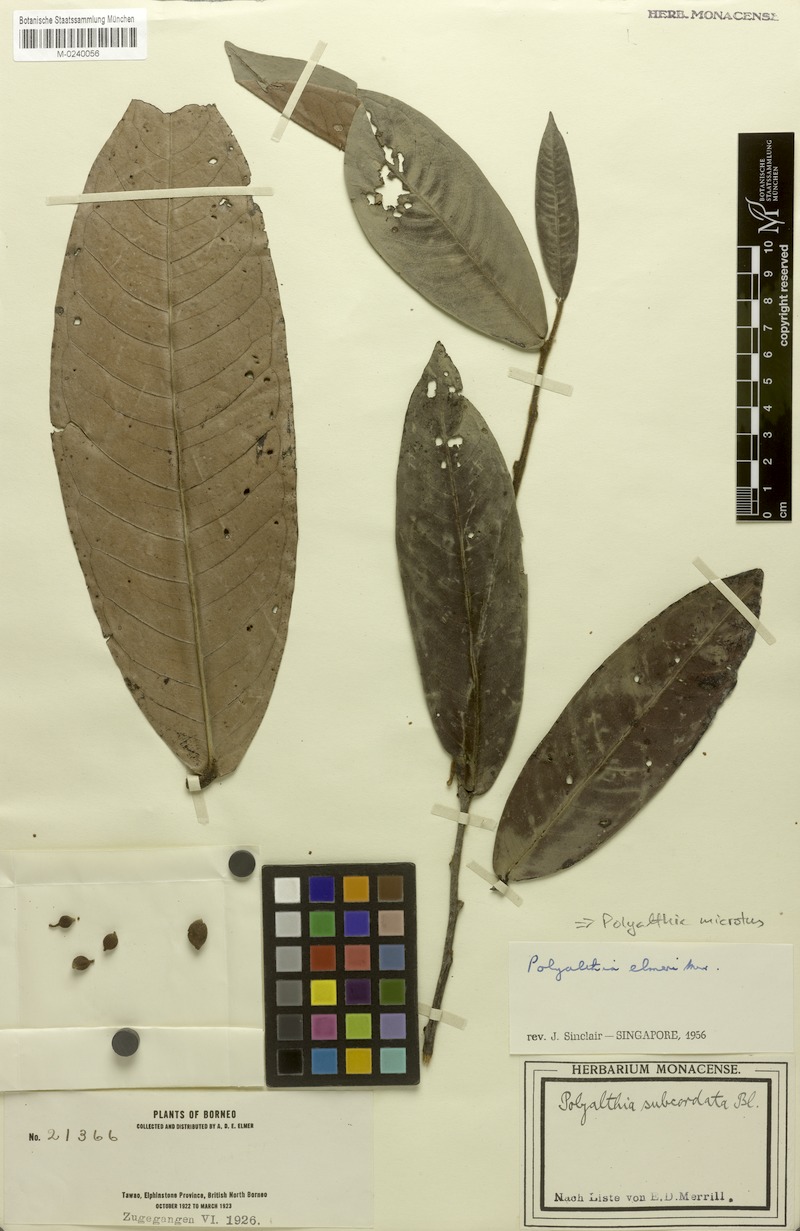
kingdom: Plantae
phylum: Tracheophyta
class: Magnoliopsida
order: Magnoliales
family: Annonaceae
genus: Polyalthia
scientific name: Polyalthia microtus
